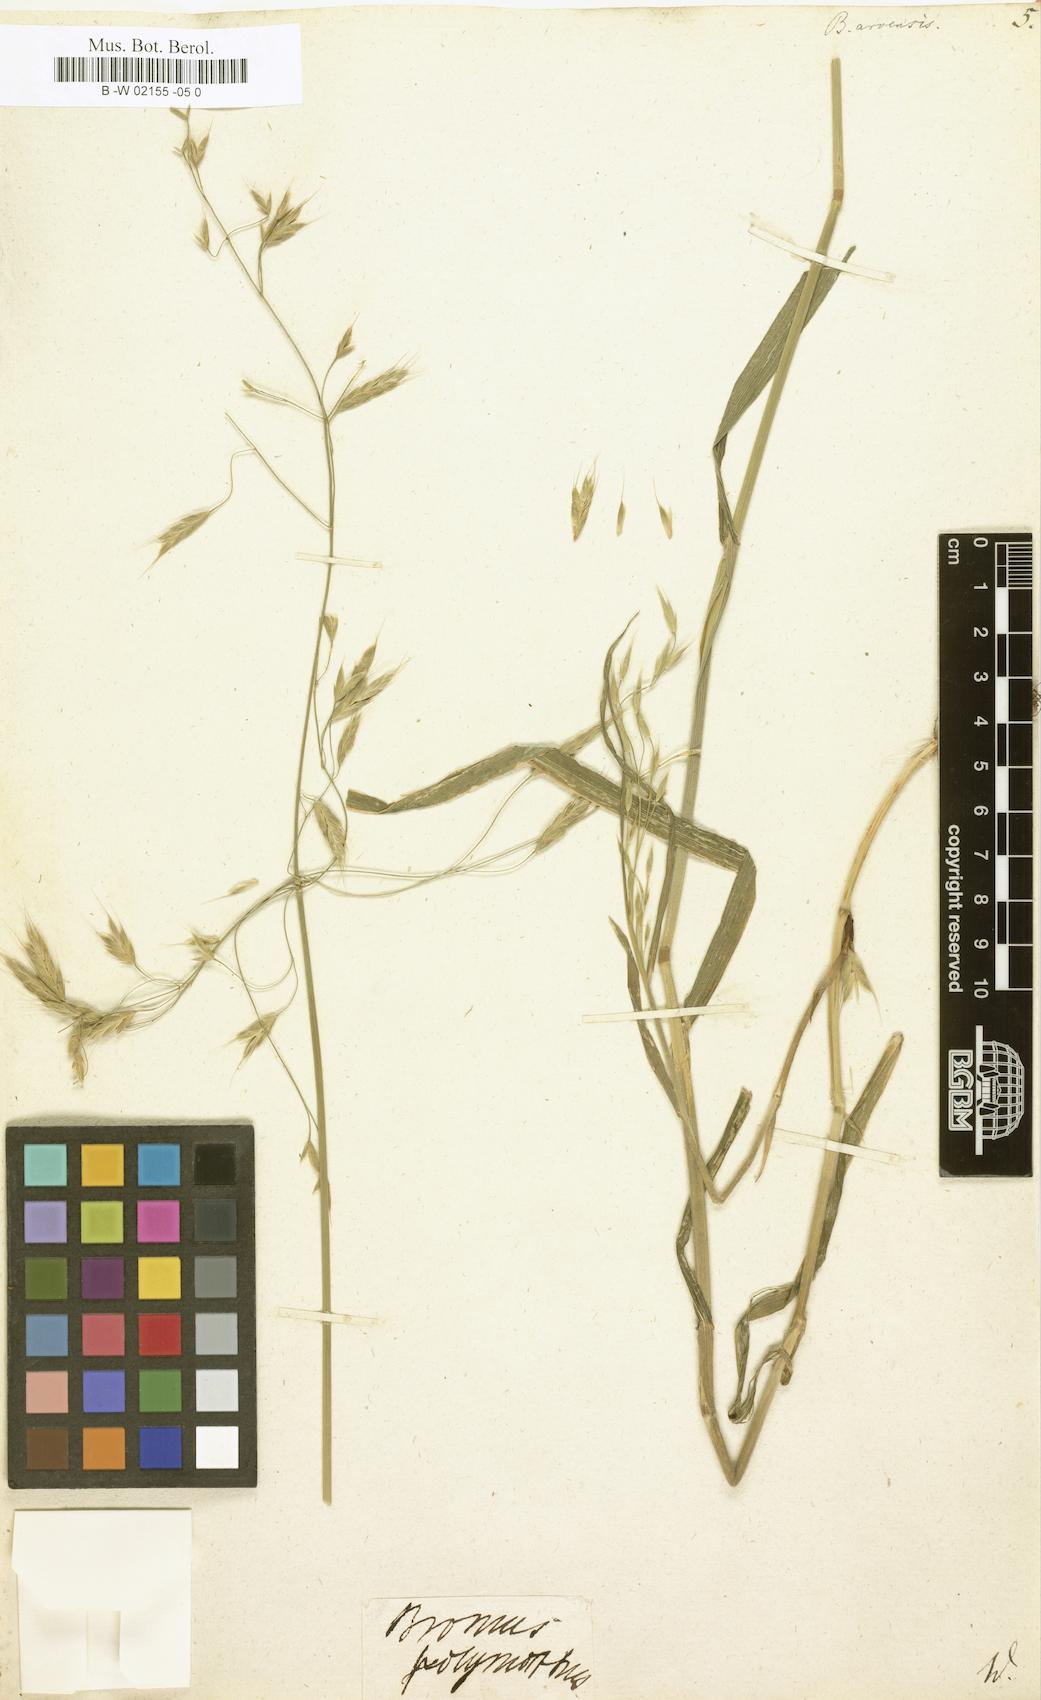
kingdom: Plantae
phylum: Tracheophyta
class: Liliopsida
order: Poales
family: Poaceae
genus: Bromus
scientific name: Bromus arvensis
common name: Field brome
